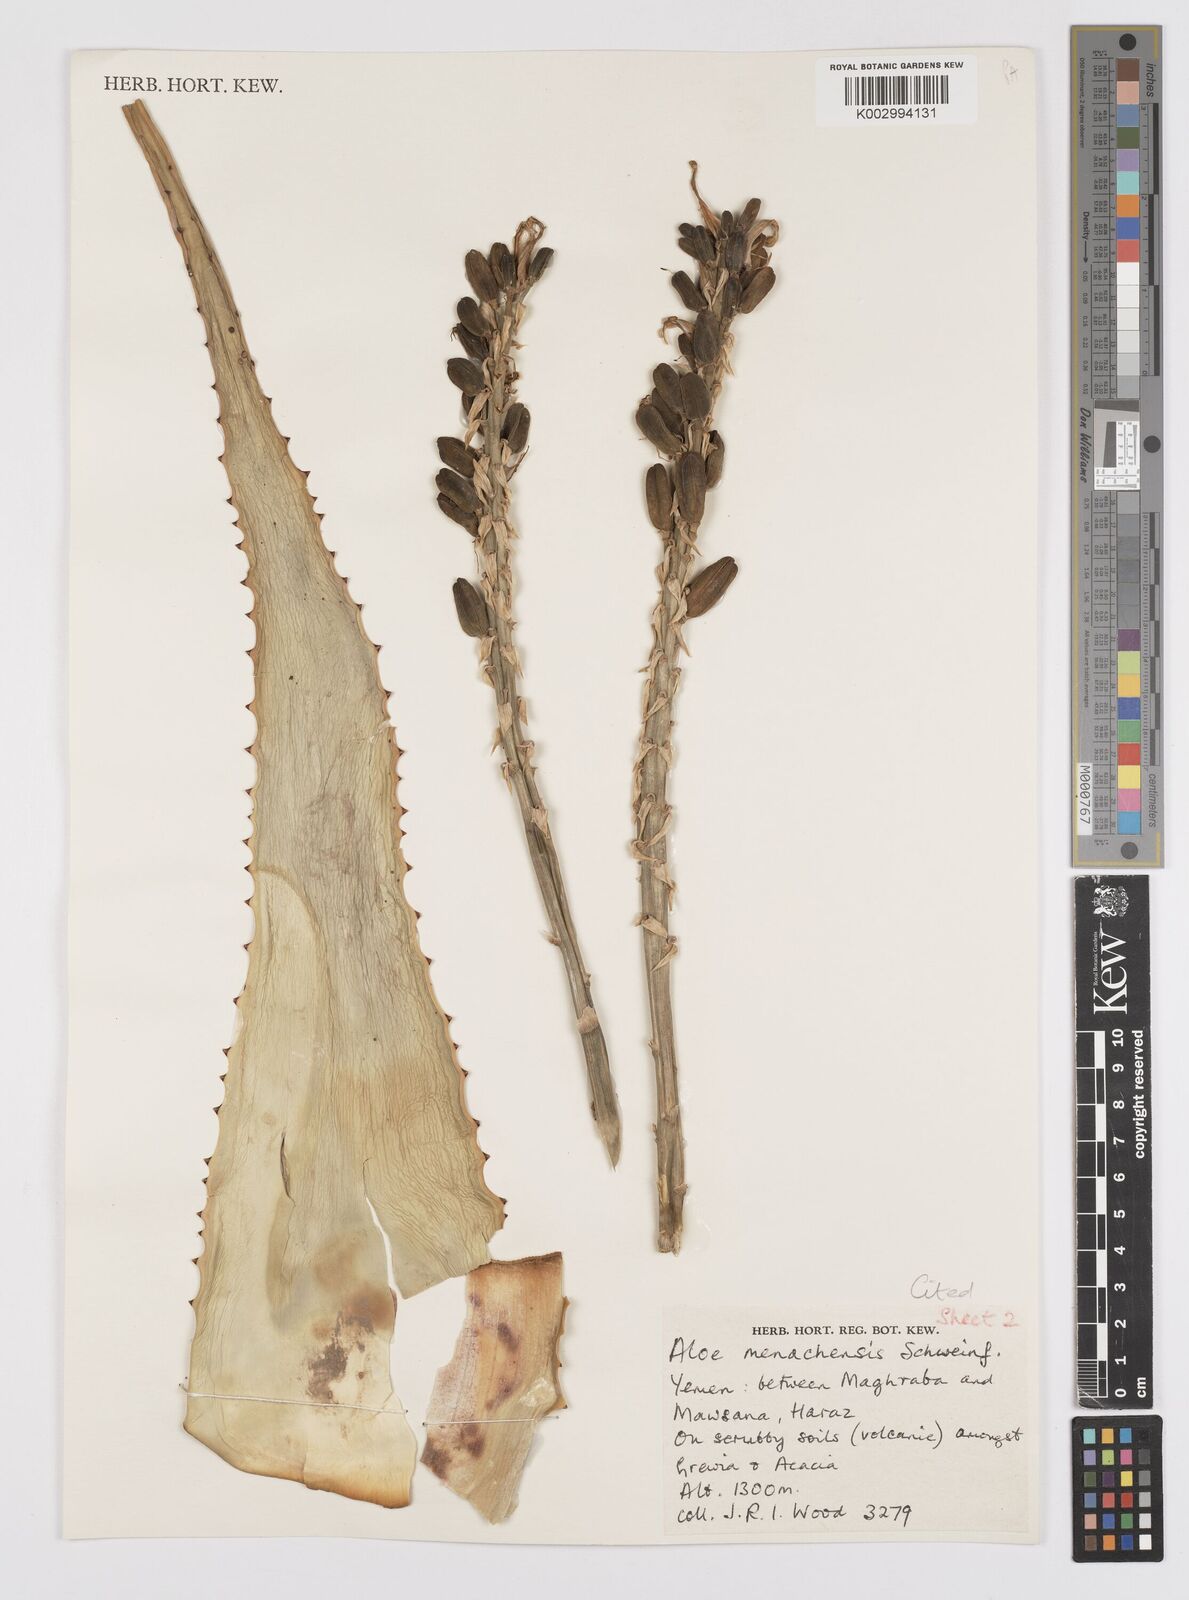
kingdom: Plantae
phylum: Tracheophyta
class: Liliopsida
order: Asparagales
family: Asphodelaceae
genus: Aloe
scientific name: Aloe
